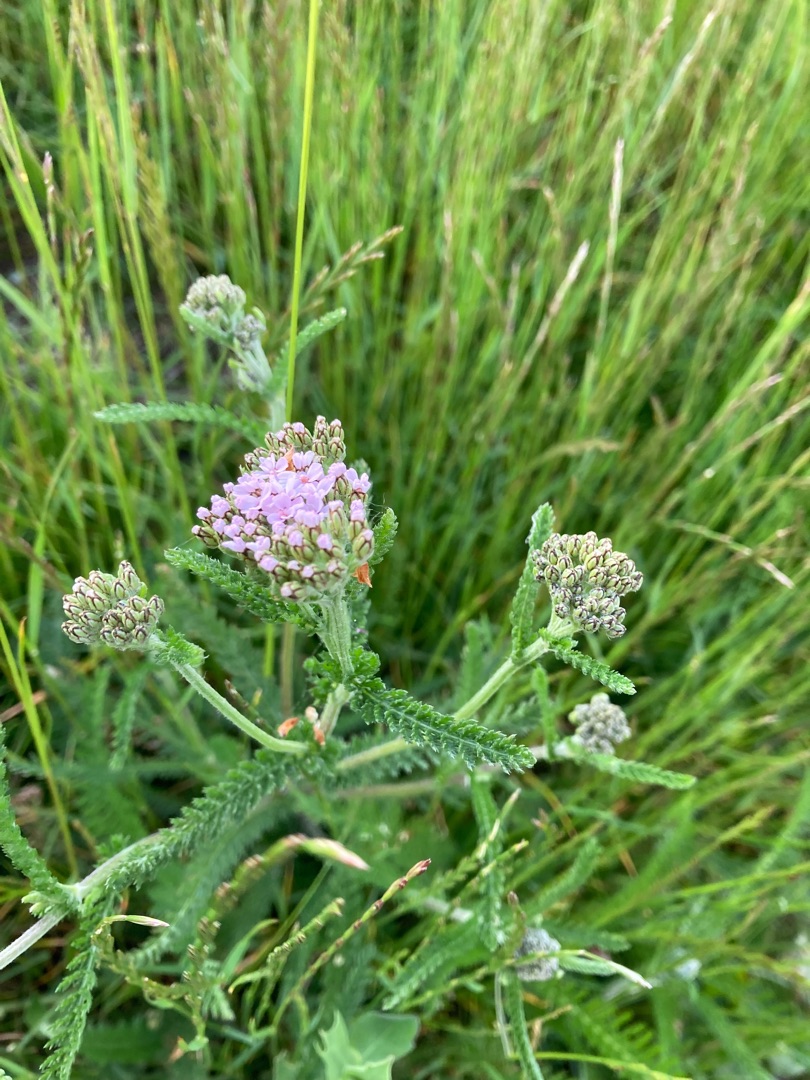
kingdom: Plantae
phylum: Tracheophyta
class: Magnoliopsida
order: Asterales
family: Asteraceae
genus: Achillea
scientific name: Achillea millefolium
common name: Almindelig røllike
